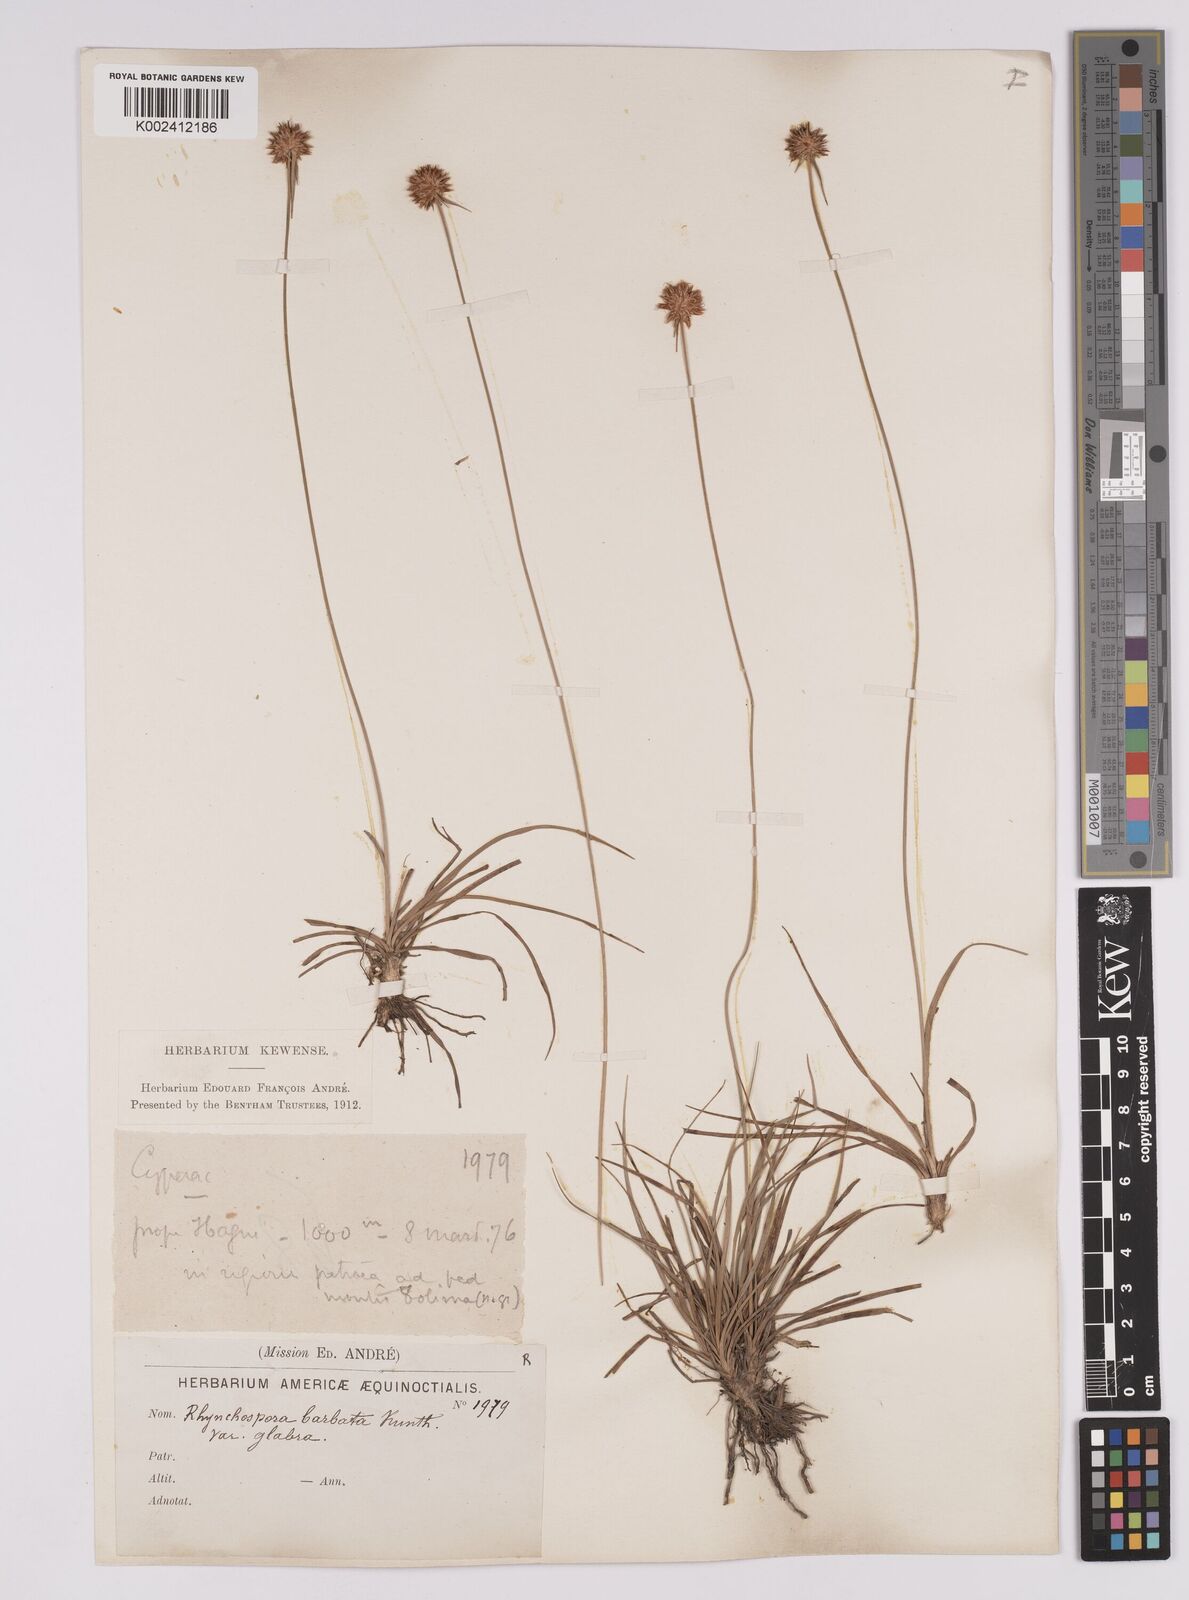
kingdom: Plantae
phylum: Tracheophyta
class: Liliopsida
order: Poales
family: Cyperaceae
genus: Rhynchospora
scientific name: Rhynchospora barbata
